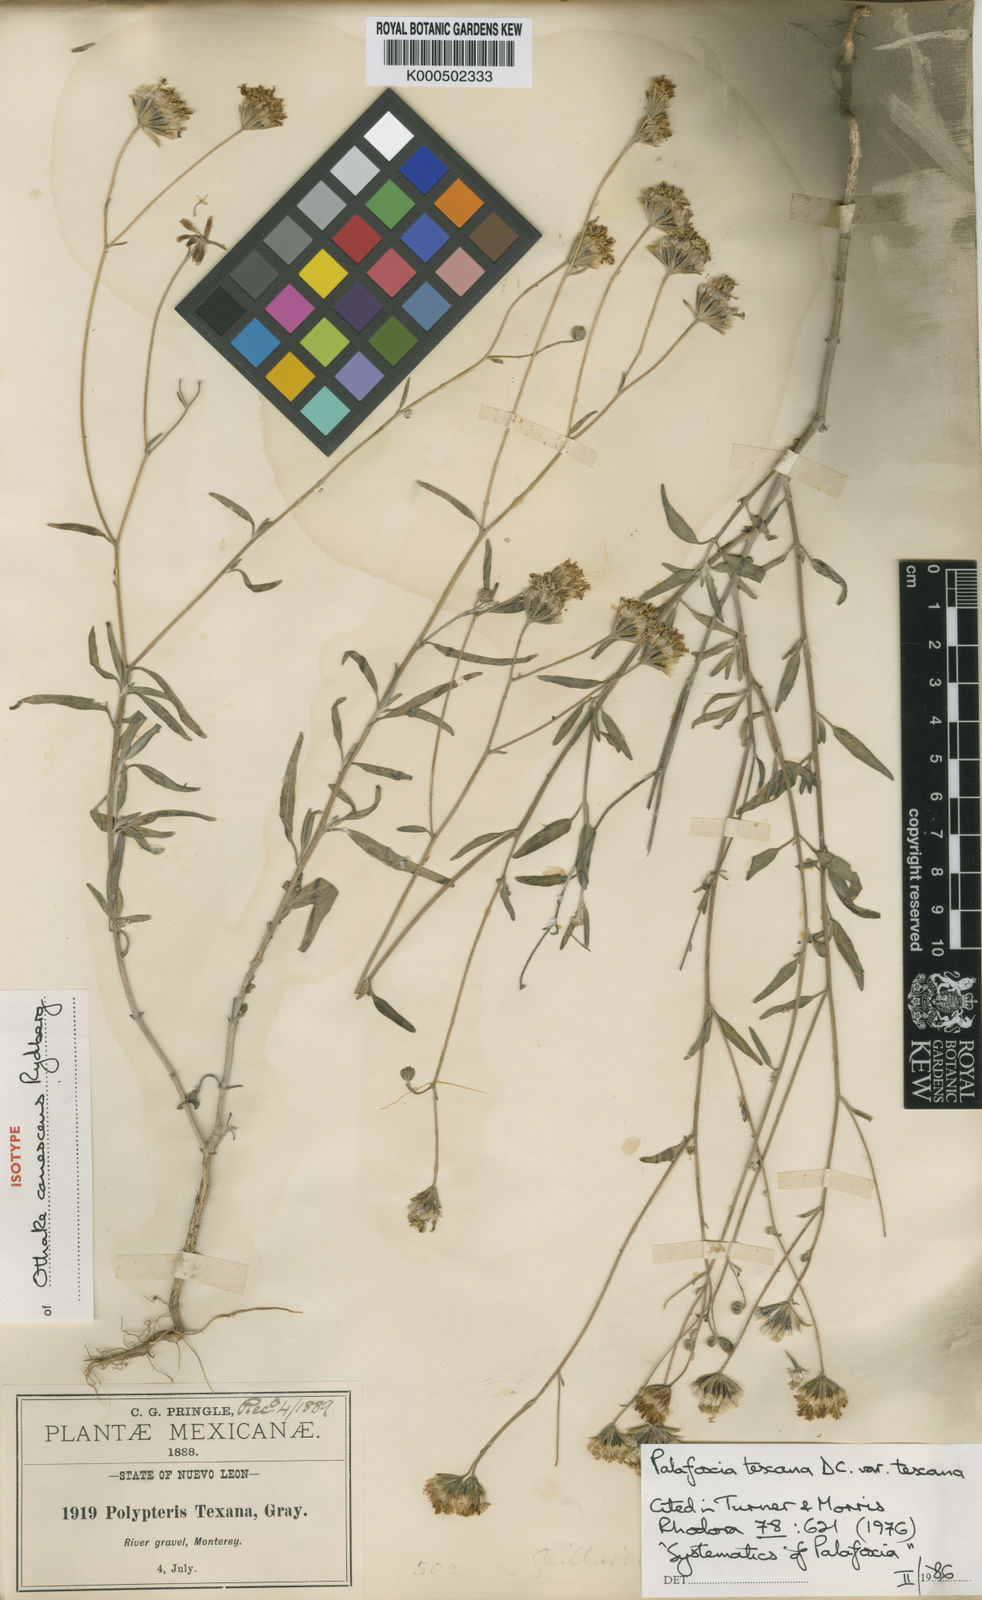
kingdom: Plantae
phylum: Tracheophyta
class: Magnoliopsida
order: Asterales
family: Asteraceae
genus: Palafoxia
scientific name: Palafoxia texana
